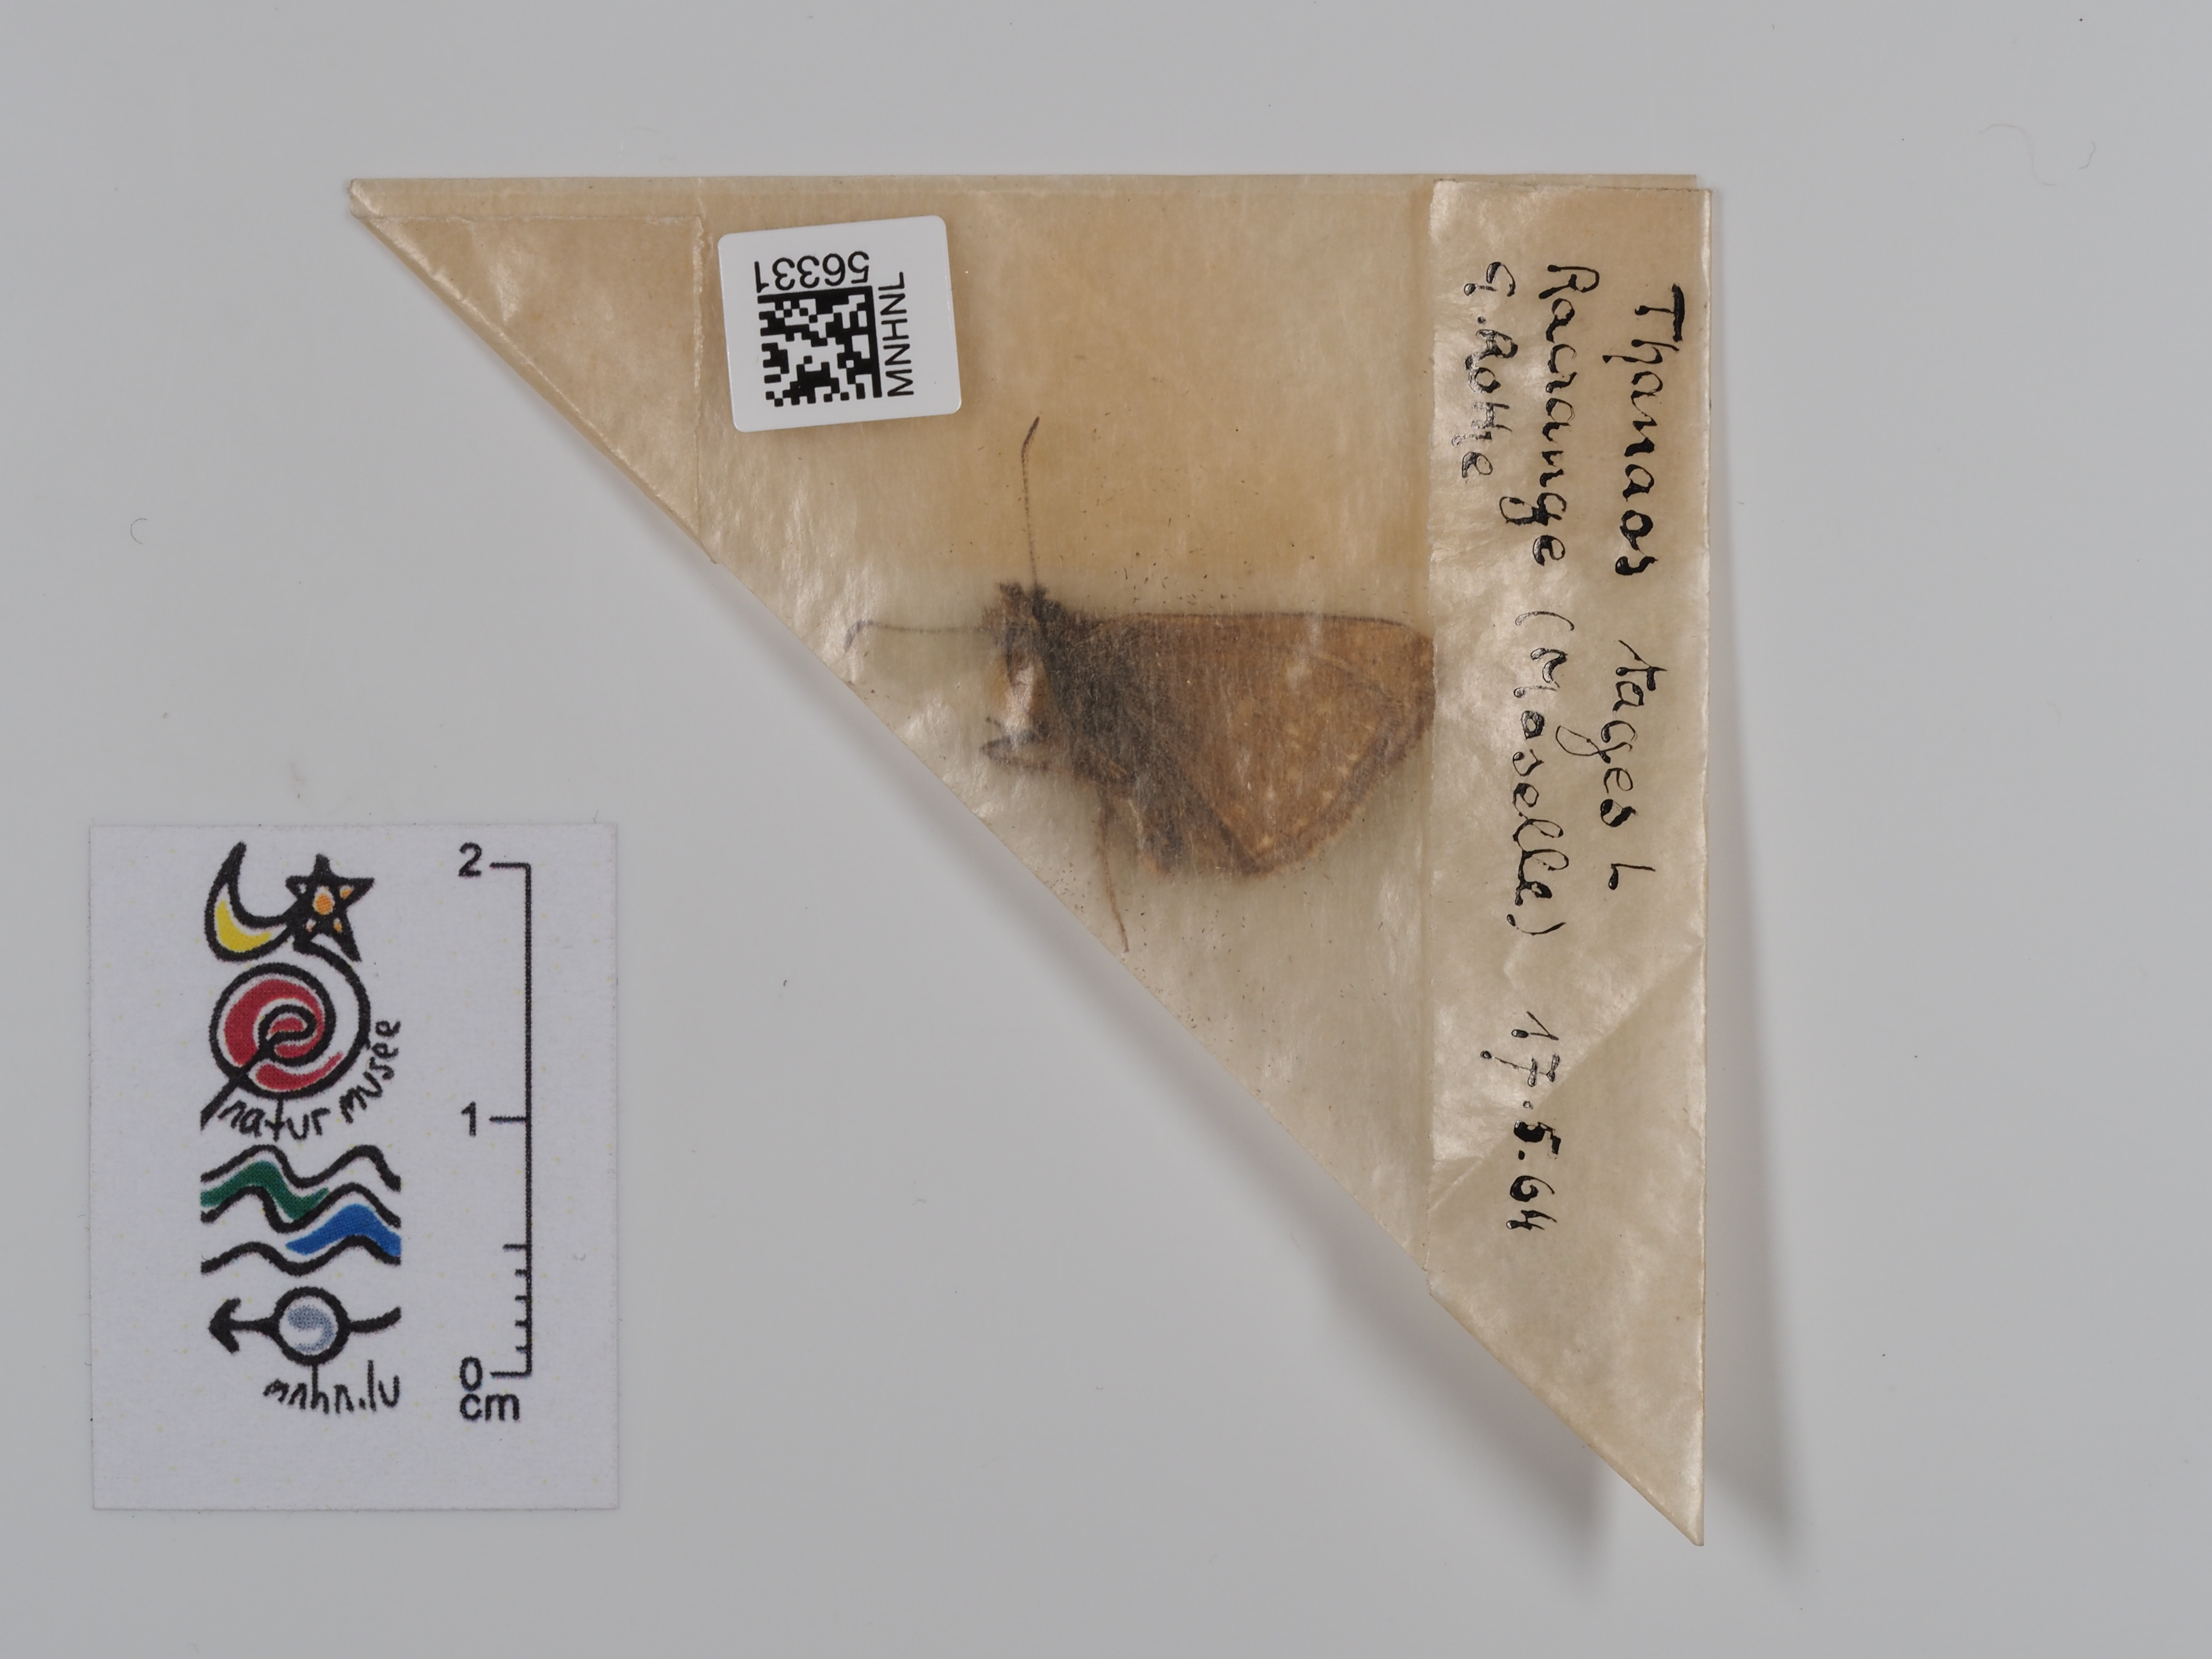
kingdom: Animalia
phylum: Arthropoda
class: Insecta
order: Lepidoptera
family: Hesperiidae
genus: Erynnis
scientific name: Erynnis tages
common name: Dingy skipper
